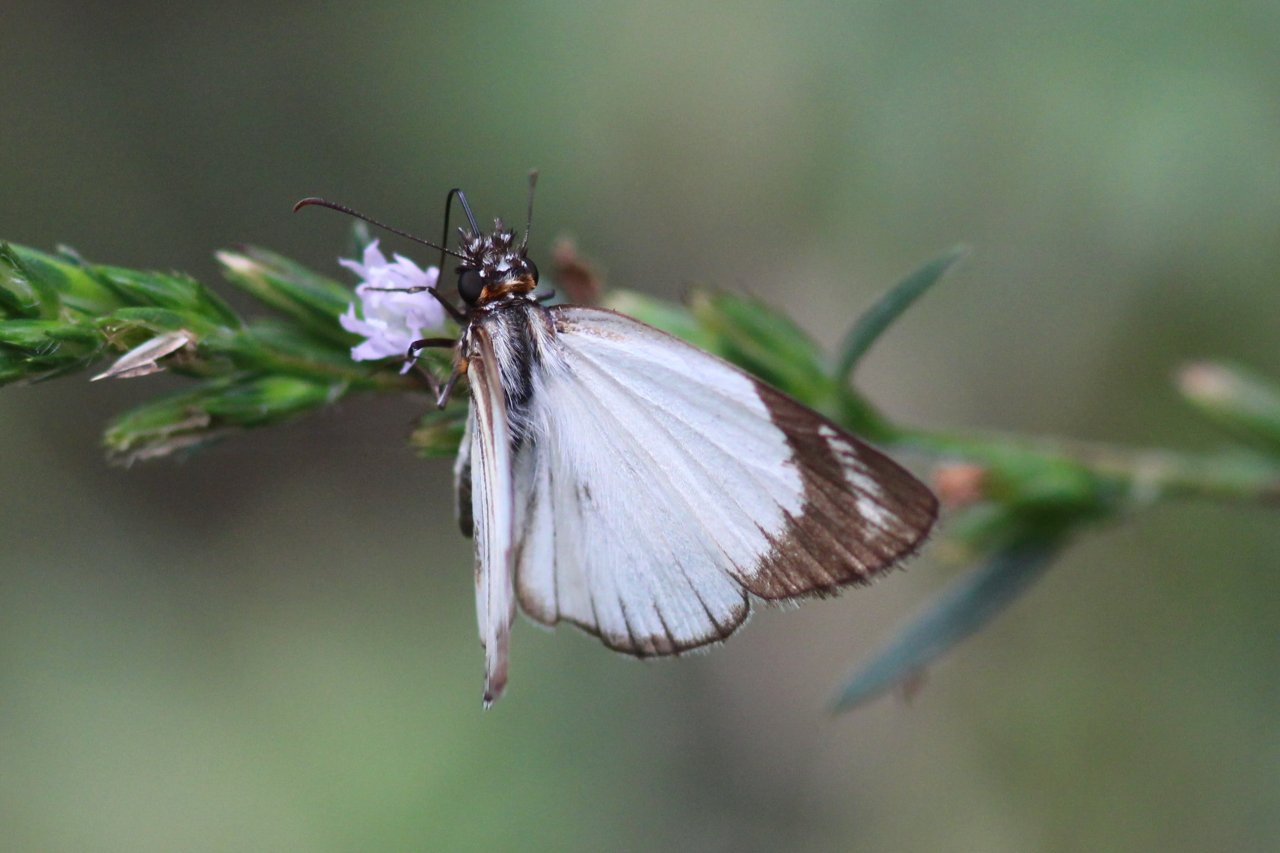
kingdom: Animalia
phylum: Arthropoda
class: Insecta
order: Lepidoptera
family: Hesperiidae
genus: Heliopetes
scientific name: Heliopetes alana
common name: Alana White-Skipper
